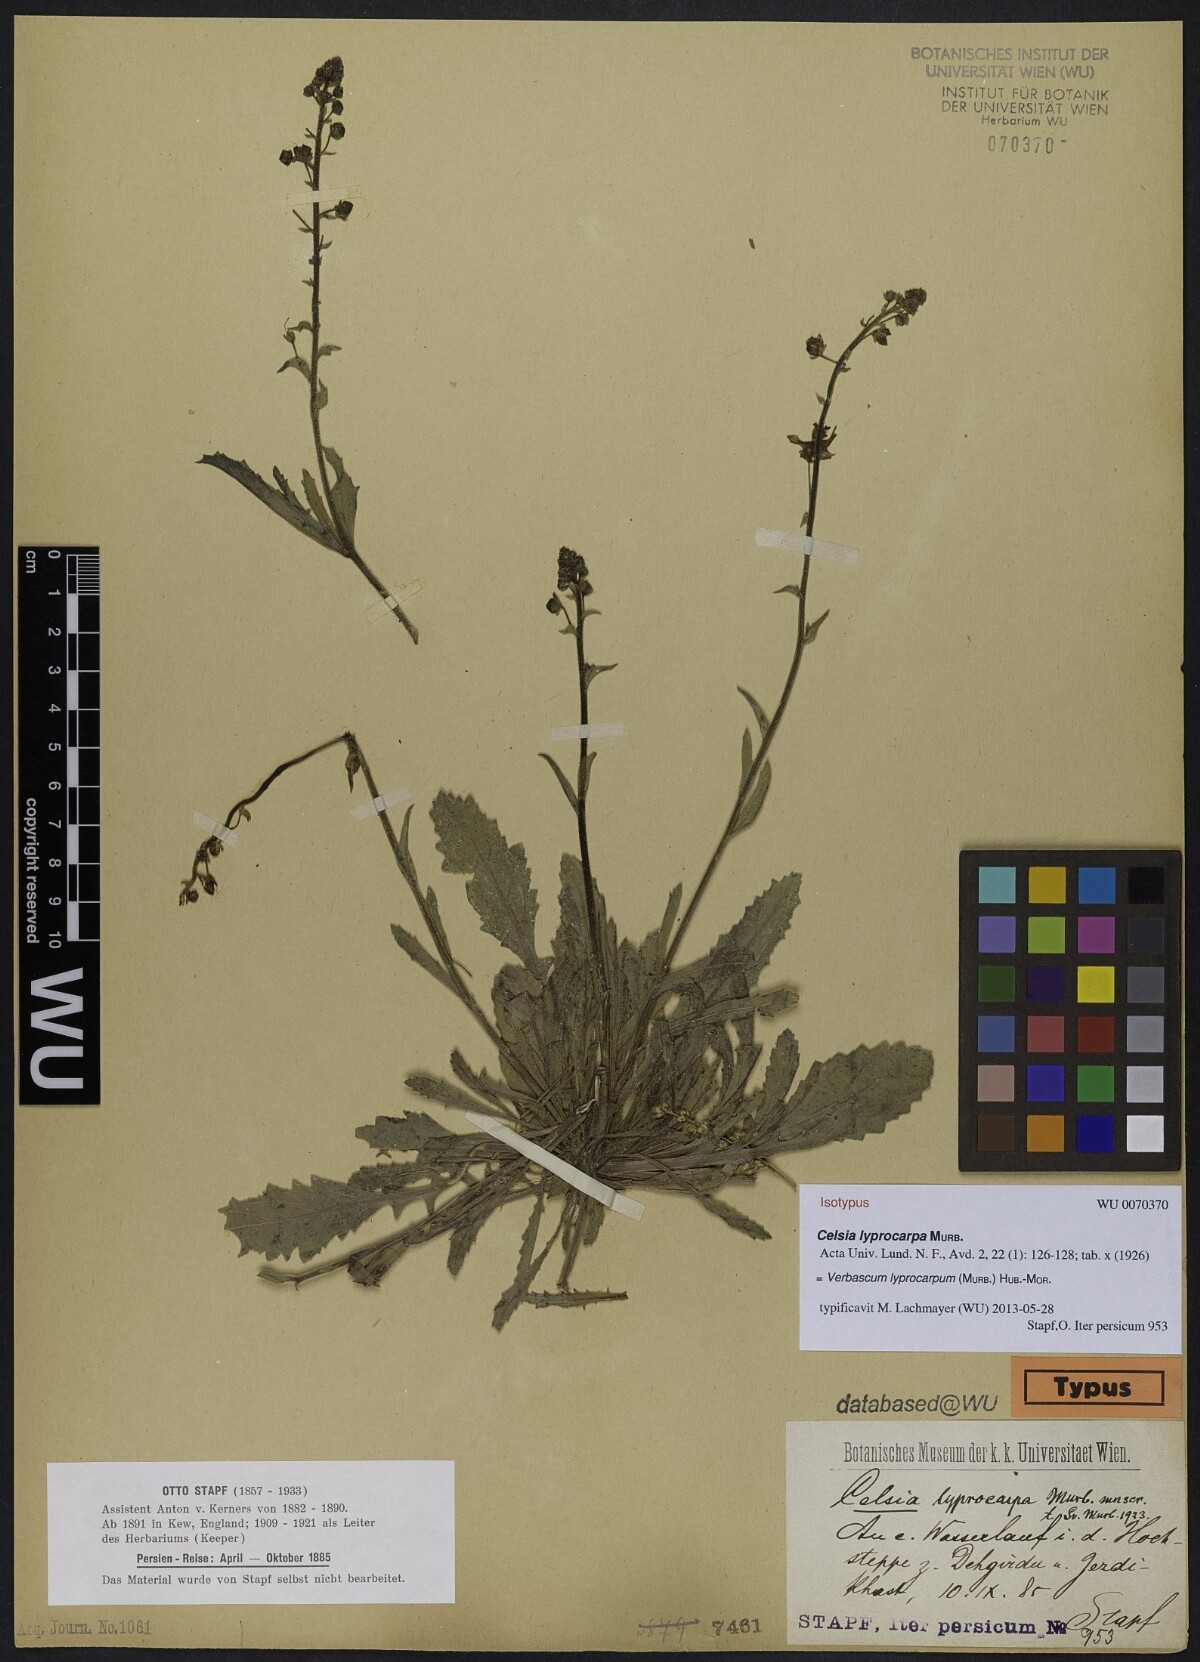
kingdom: Plantae
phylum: Tracheophyta
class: Magnoliopsida
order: Lamiales
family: Scrophulariaceae
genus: Verbascum
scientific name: Verbascum lyprocarpum
